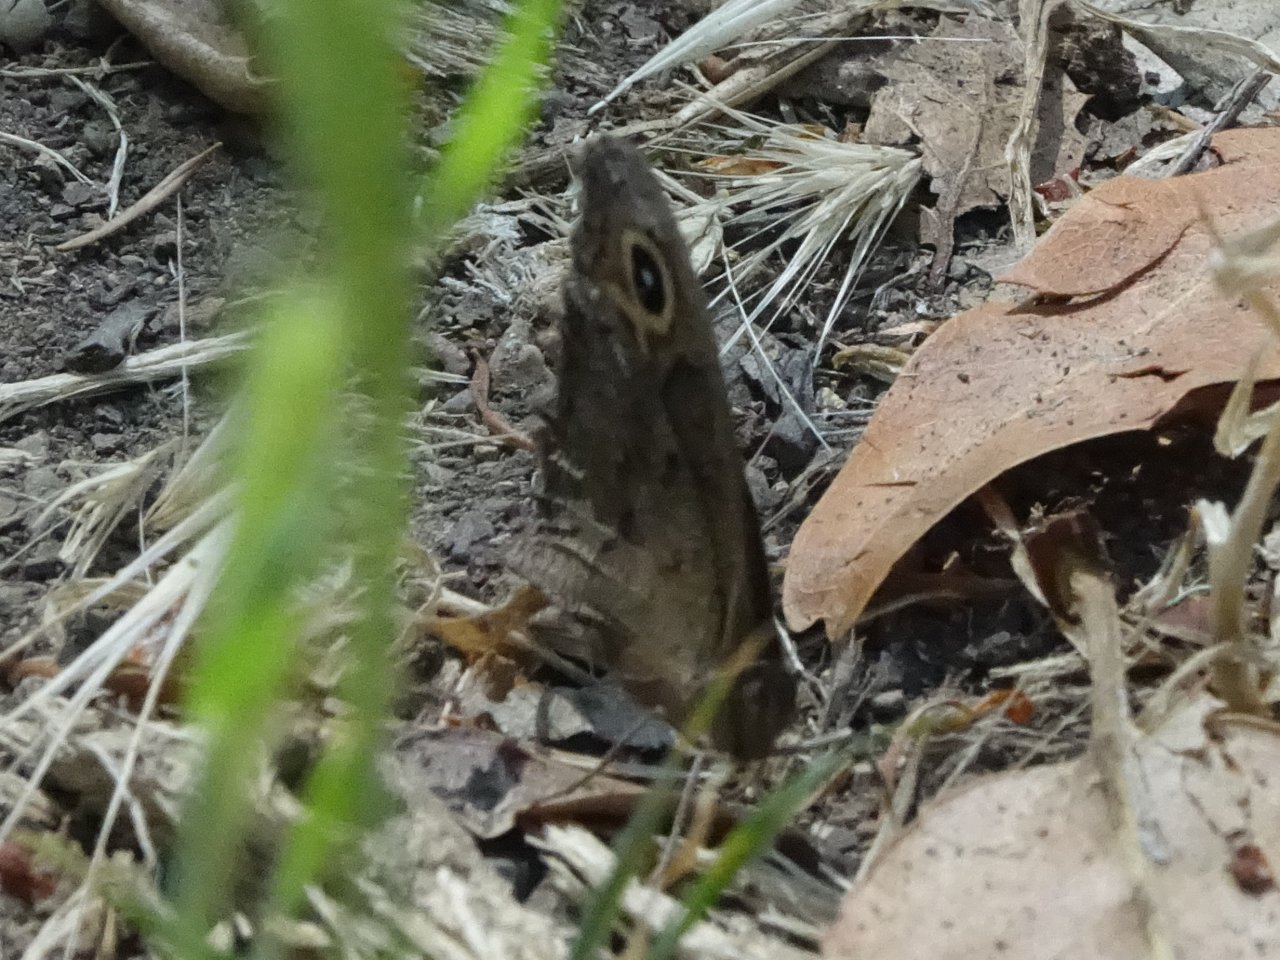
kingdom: Animalia
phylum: Arthropoda
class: Insecta
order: Lepidoptera
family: Nymphalidae
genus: Cercyonis
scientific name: Cercyonis pegala
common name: Common Wood-Nymph
